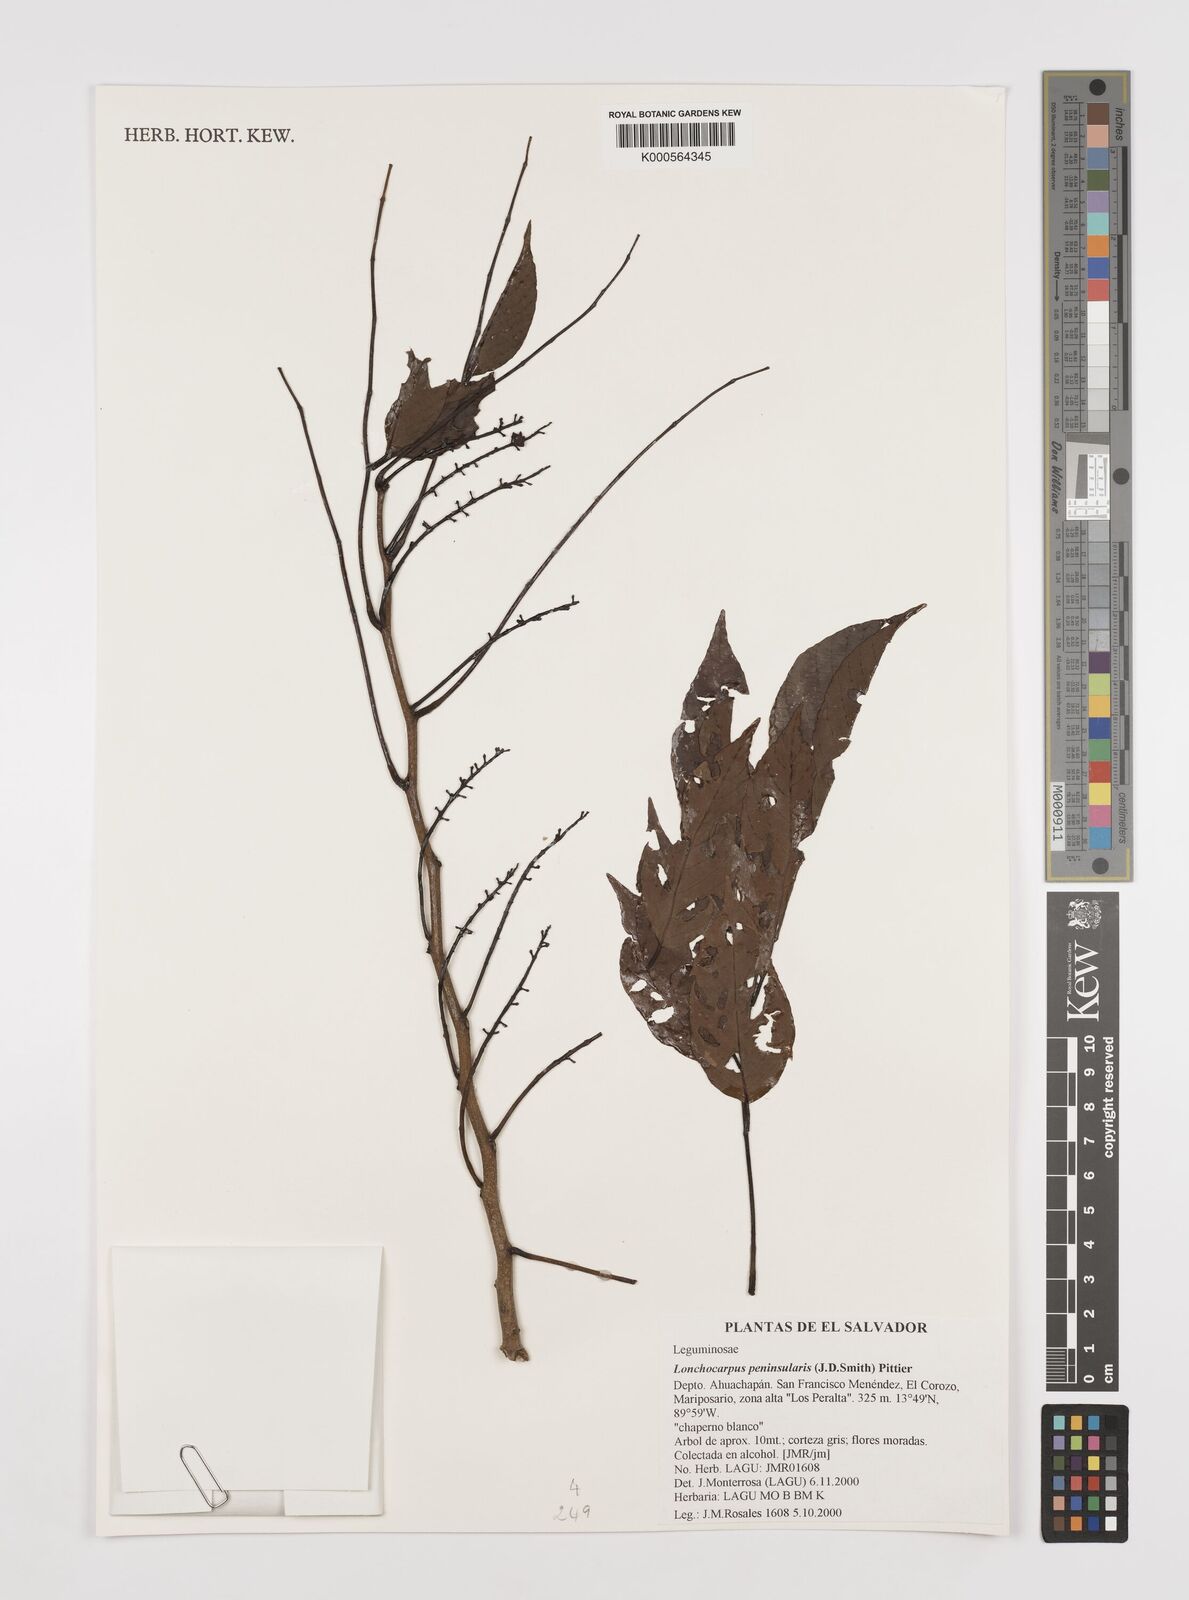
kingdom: Plantae
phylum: Tracheophyta
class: Magnoliopsida
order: Fabales
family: Fabaceae
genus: Lonchocarpus
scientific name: Lonchocarpus acuminatus
